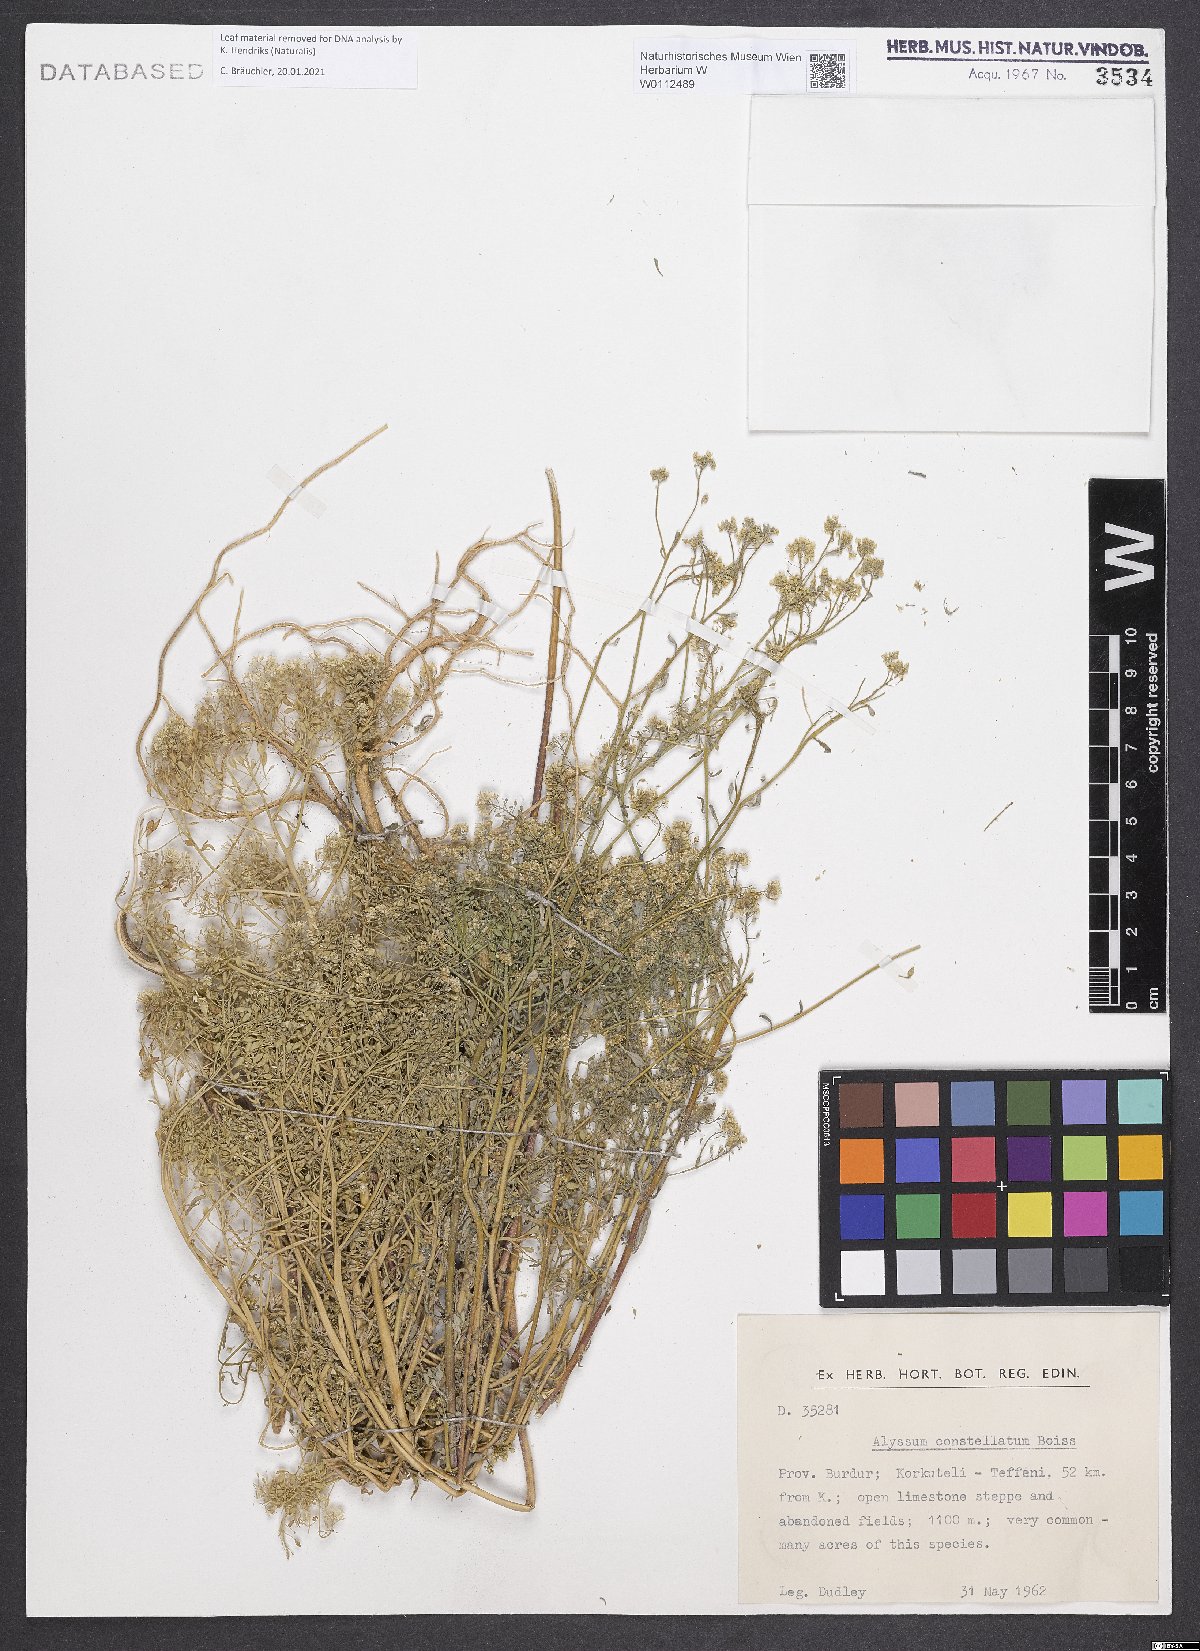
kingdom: Plantae
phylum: Tracheophyta
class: Magnoliopsida
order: Brassicales
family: Brassicaceae
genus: Odontarrhena
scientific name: Odontarrhena constellata
